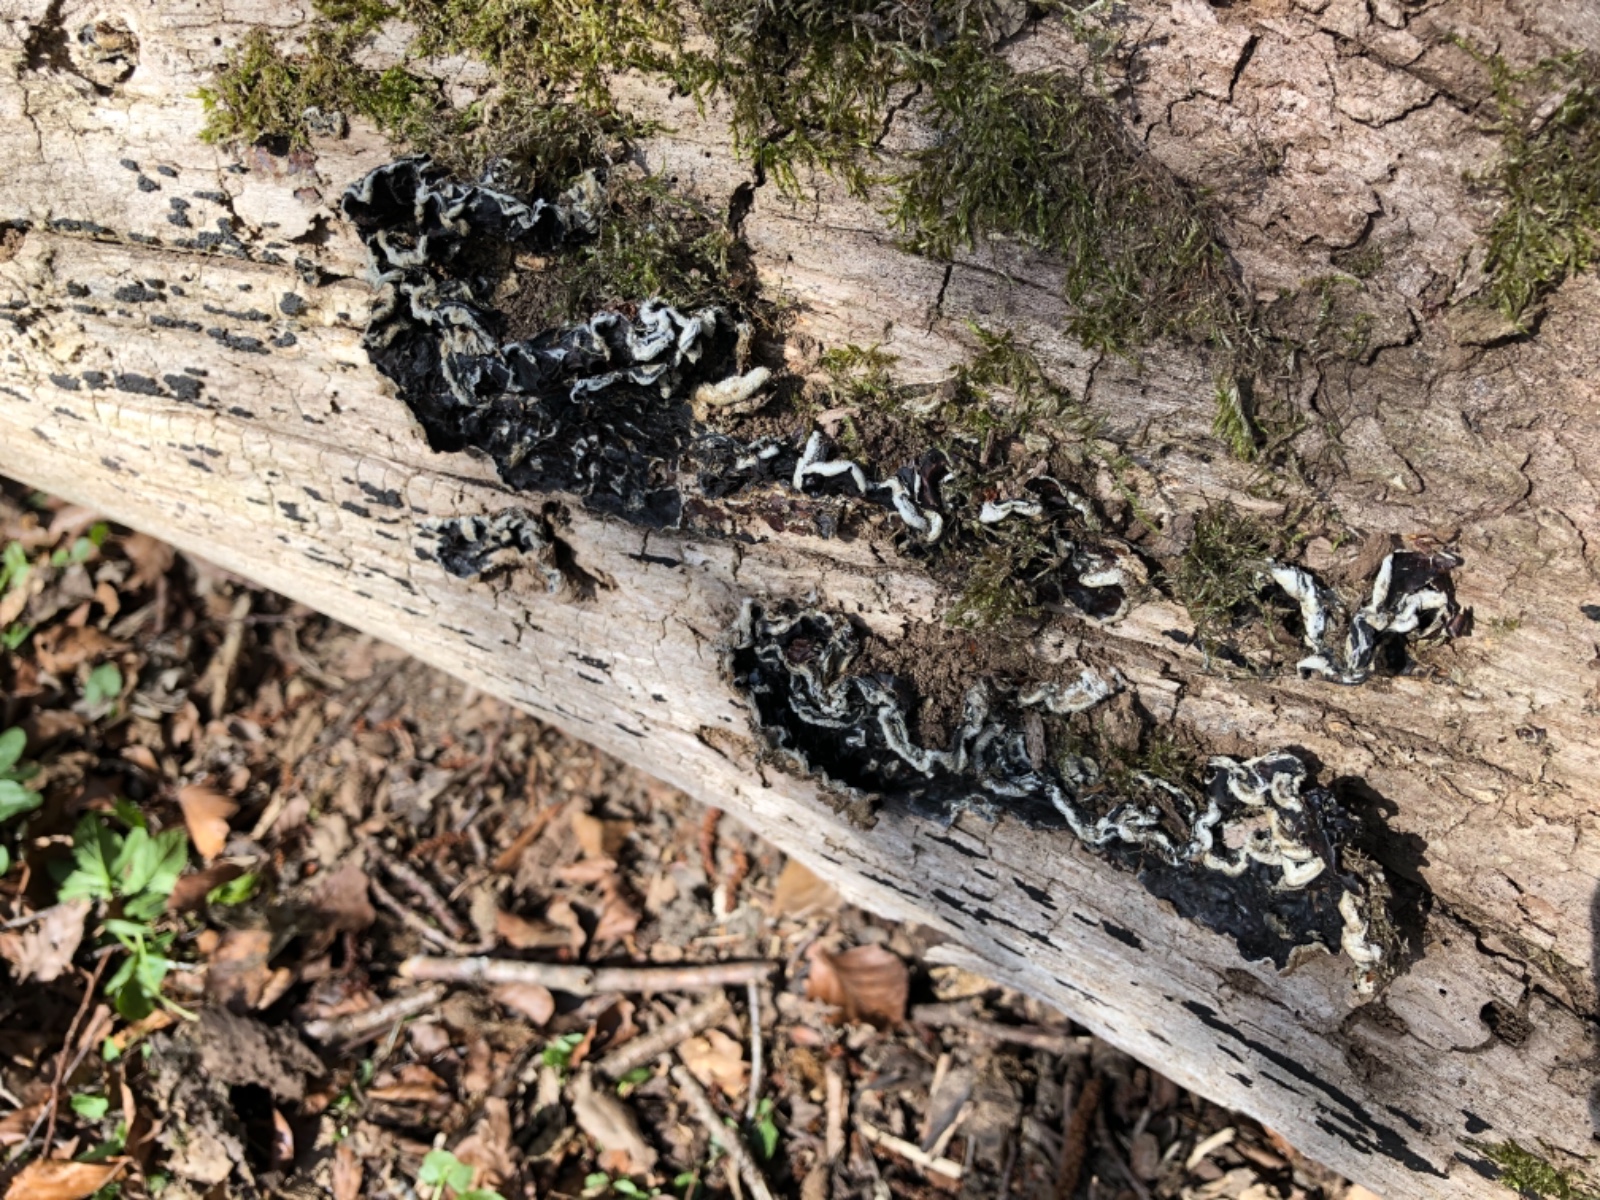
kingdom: Fungi
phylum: Basidiomycota
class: Agaricomycetes
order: Auriculariales
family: Auriculariaceae
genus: Auricularia
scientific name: Auricularia mesenterica
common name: håret judasøre
